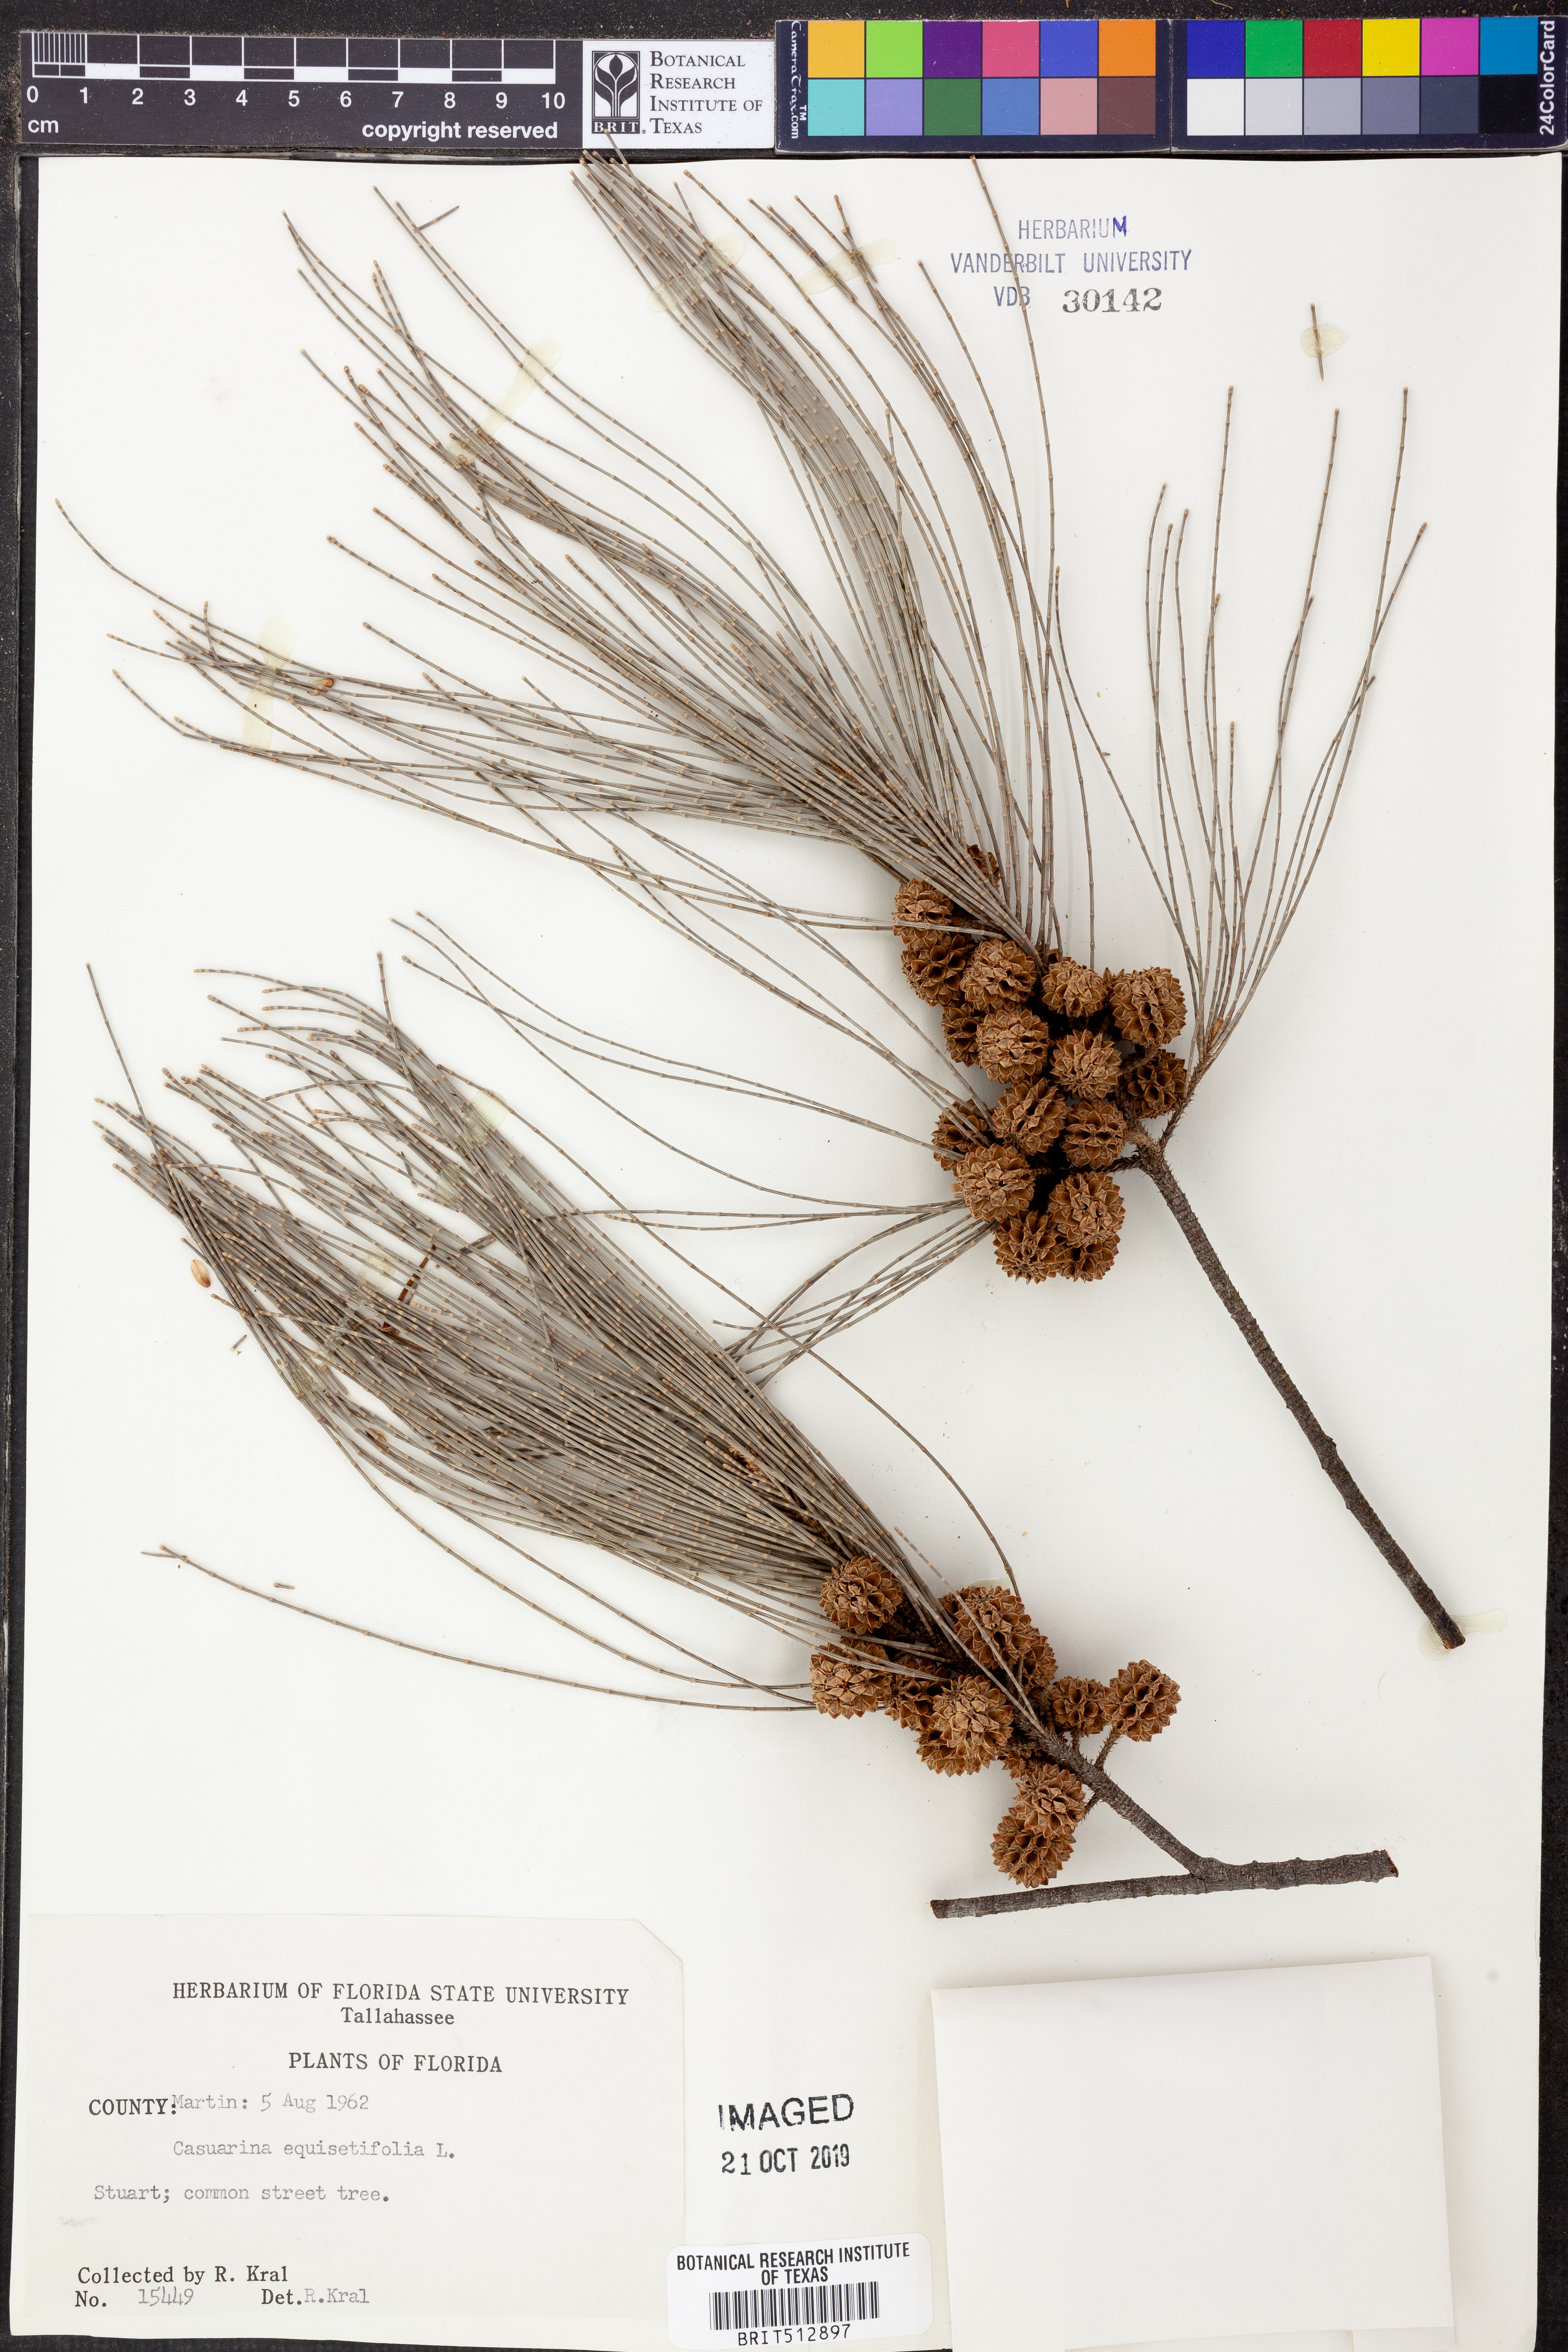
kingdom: Plantae
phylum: Tracheophyta
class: Magnoliopsida
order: Fagales
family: Casuarinaceae
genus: Casuarina
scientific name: Casuarina equisetifolia
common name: Beach sheoak
